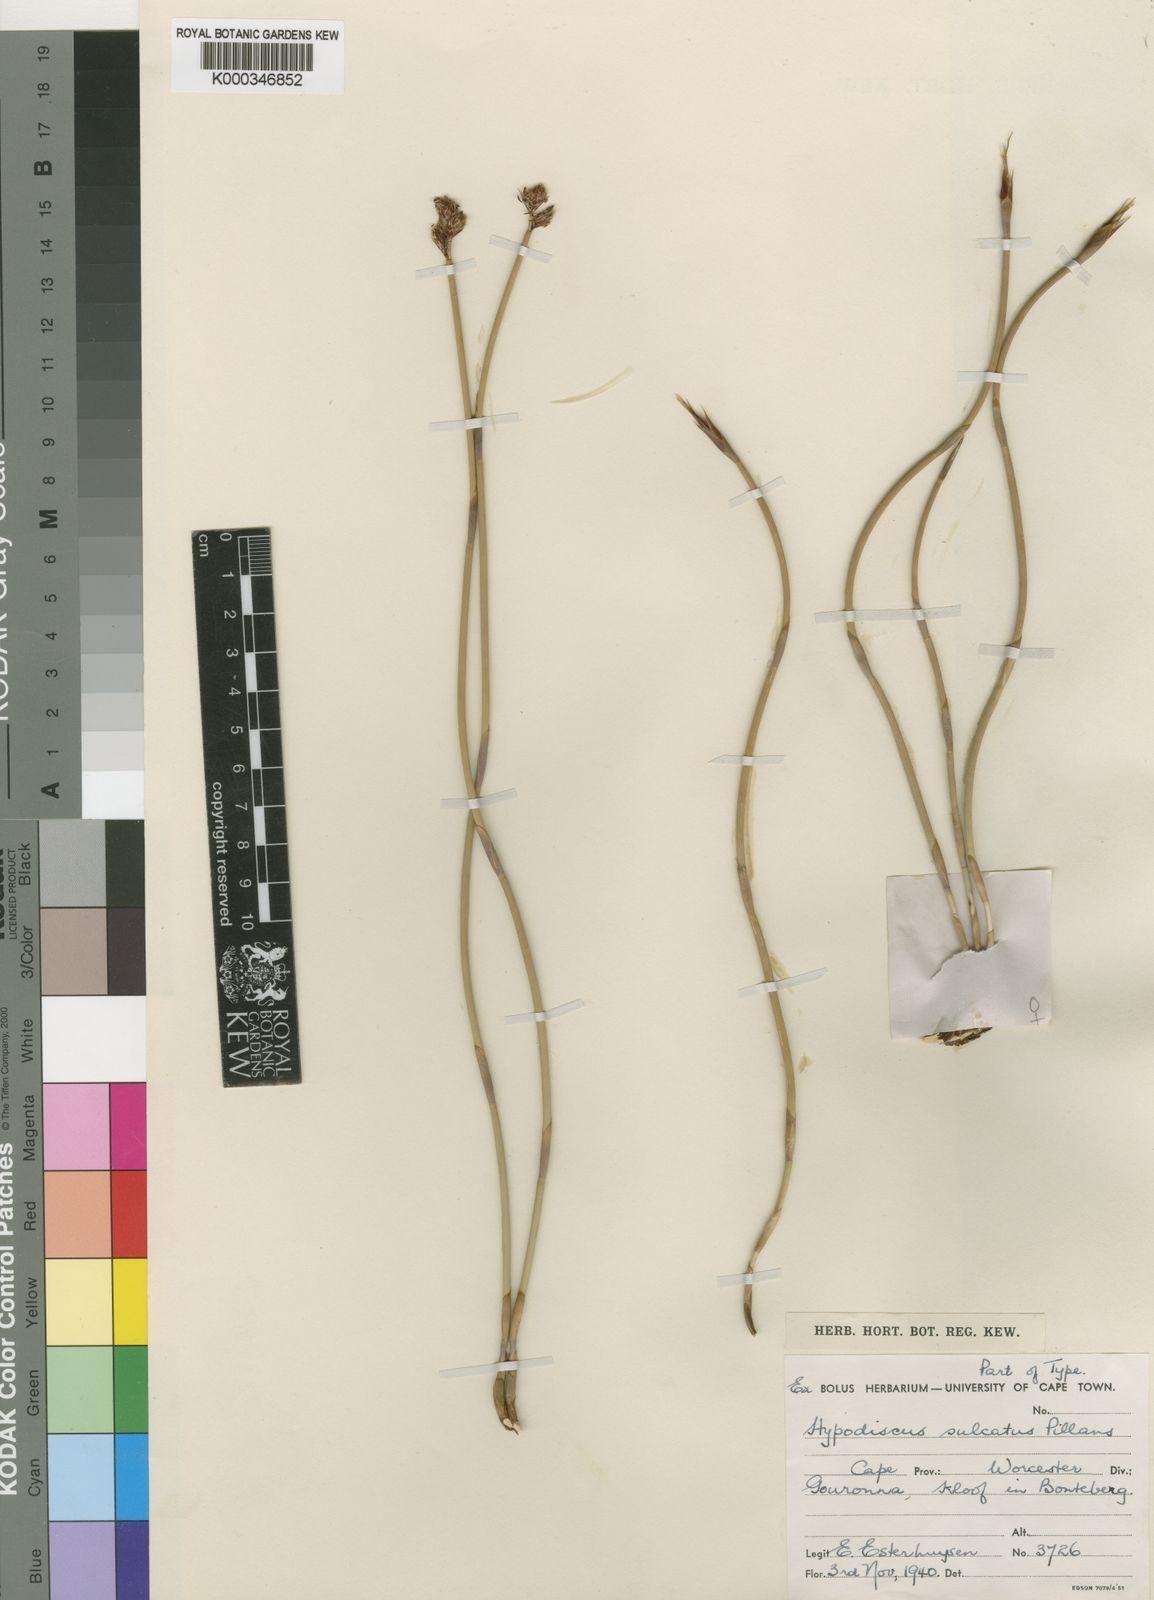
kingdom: Plantae
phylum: Tracheophyta
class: Liliopsida
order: Poales
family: Restionaceae
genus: Hypodiscus
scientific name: Hypodiscus sulcatus
